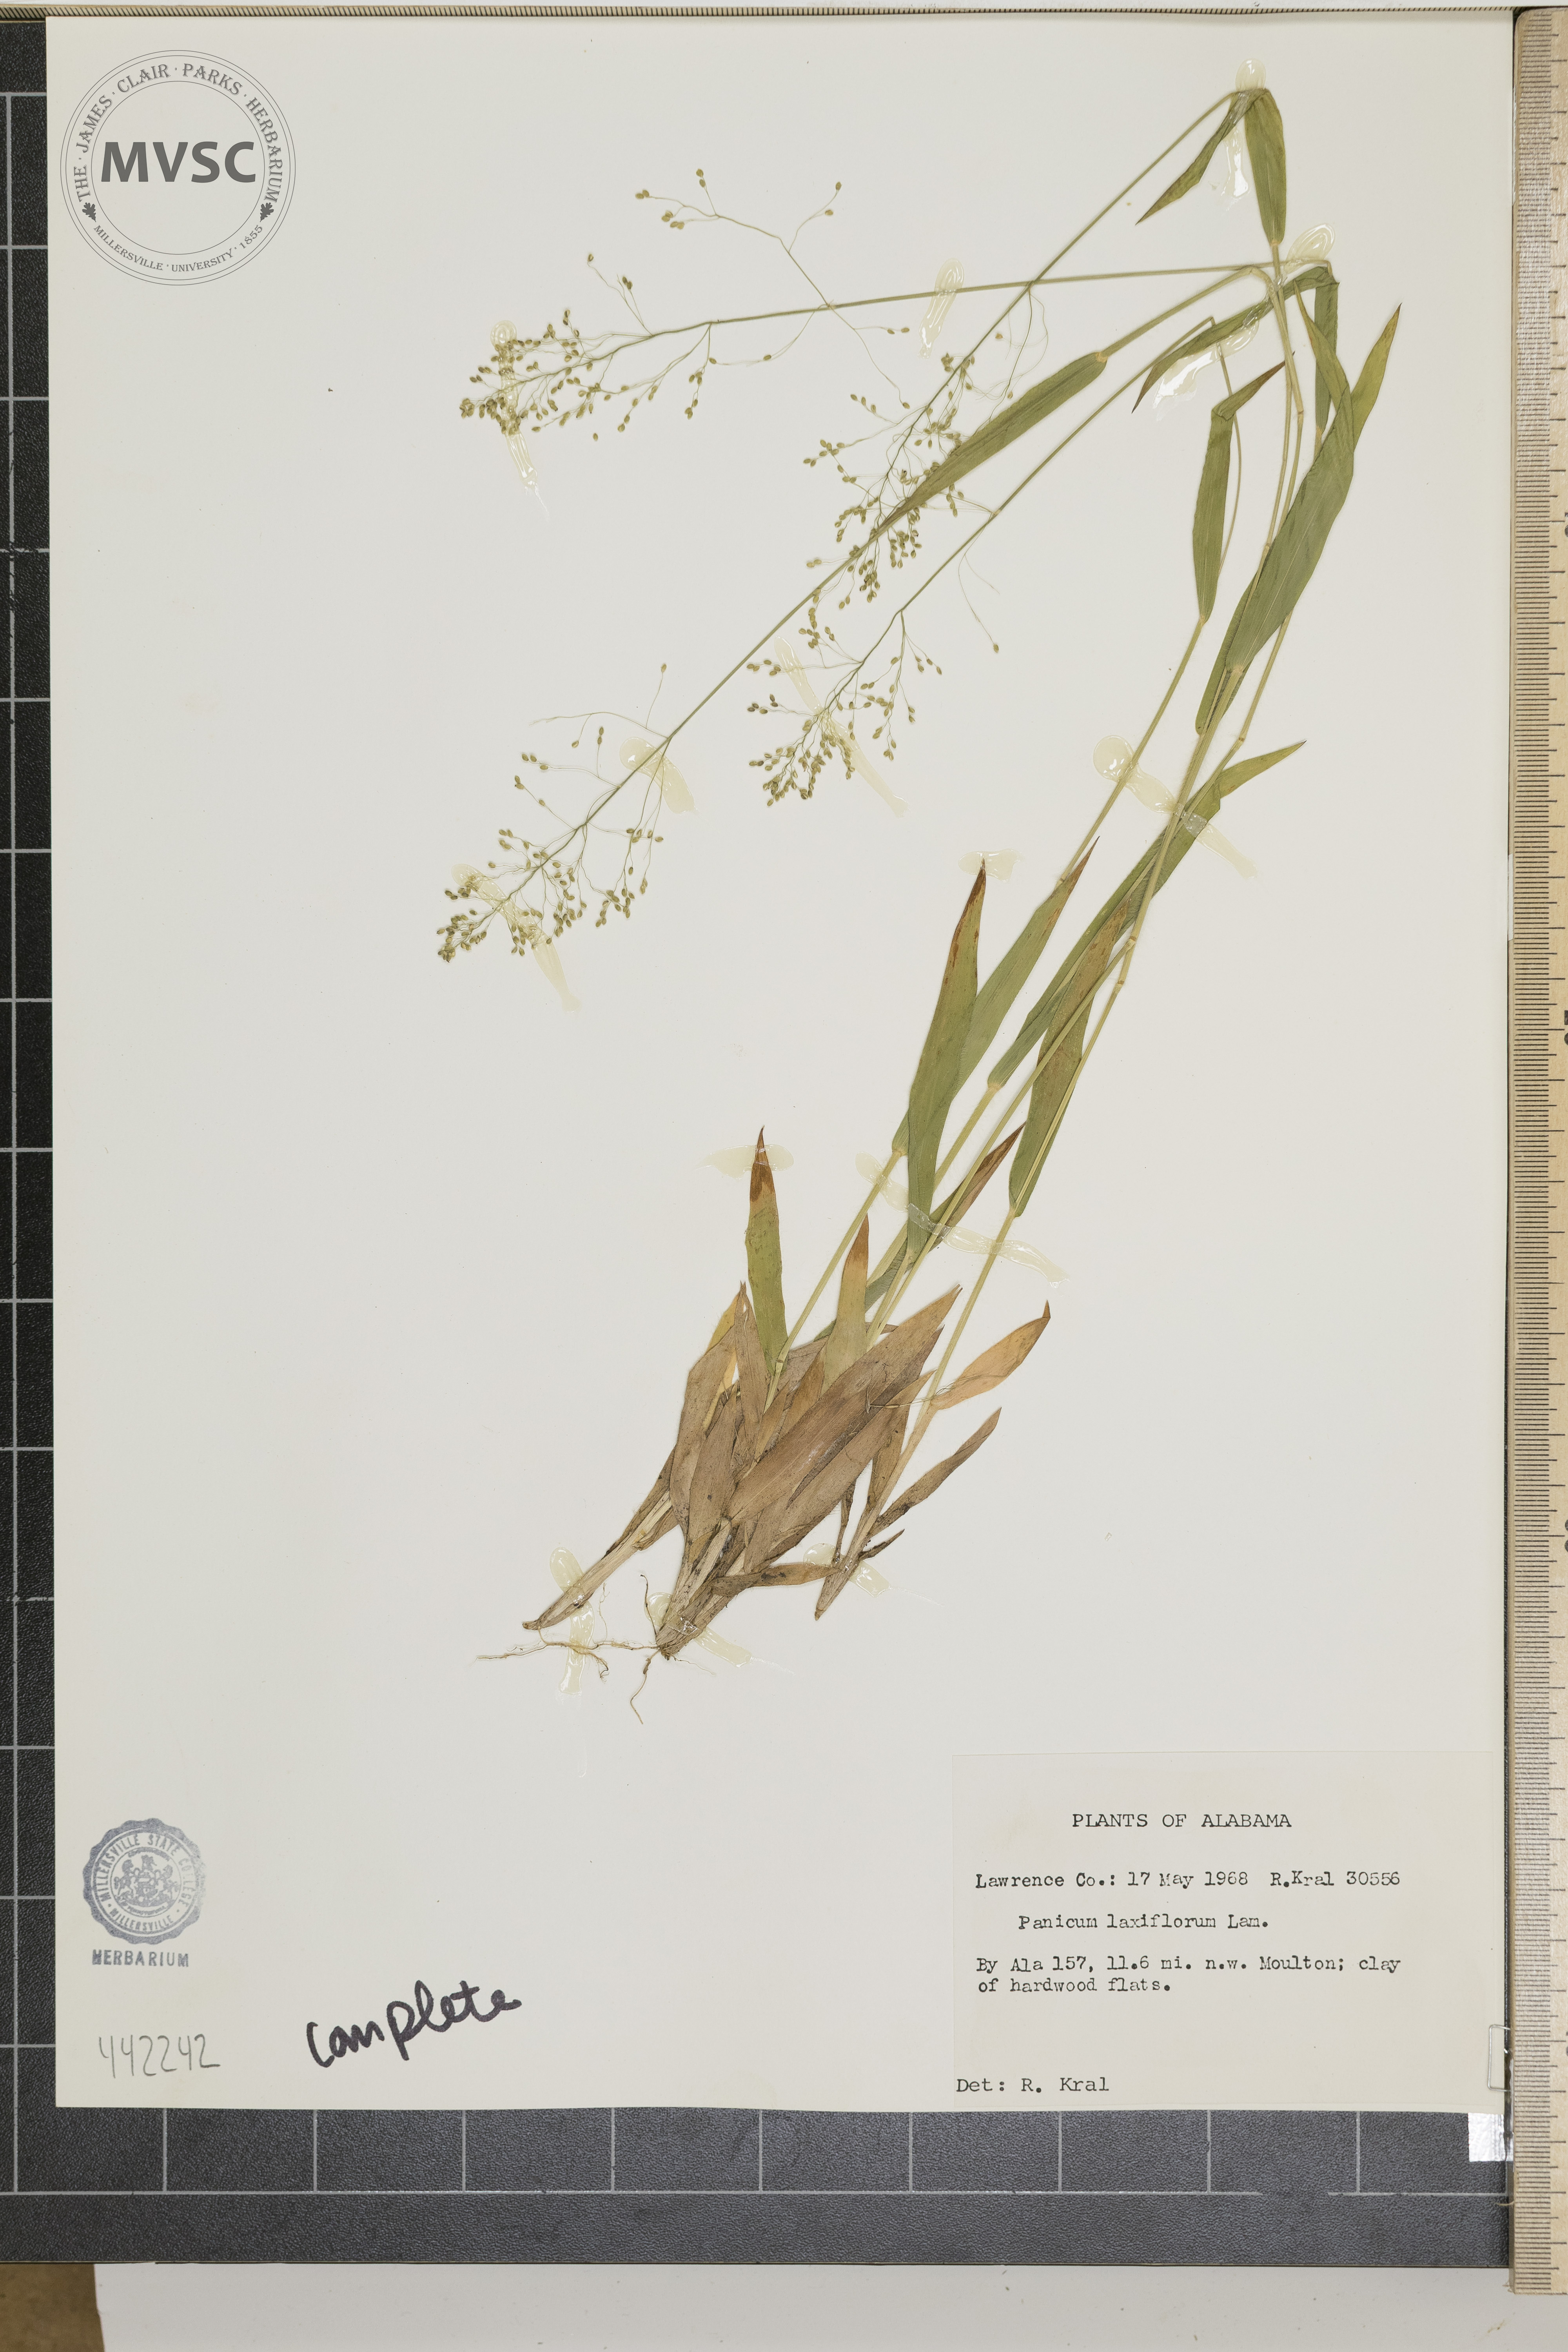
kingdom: Plantae
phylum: Tracheophyta
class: Liliopsida
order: Poales
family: Poaceae
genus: Dichanthelium
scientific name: Dichanthelium laxiflorum
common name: Soft-tuft panic grass
